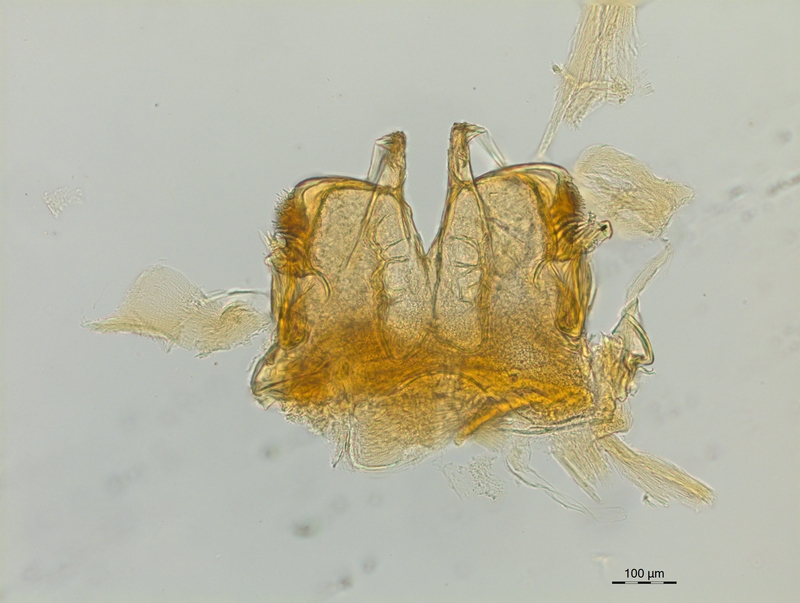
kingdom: Animalia
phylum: Arthropoda
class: Diplopoda
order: Chordeumatida
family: Craspedosomatidae
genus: Craspedosoma
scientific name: Craspedosoma rawlinsii
